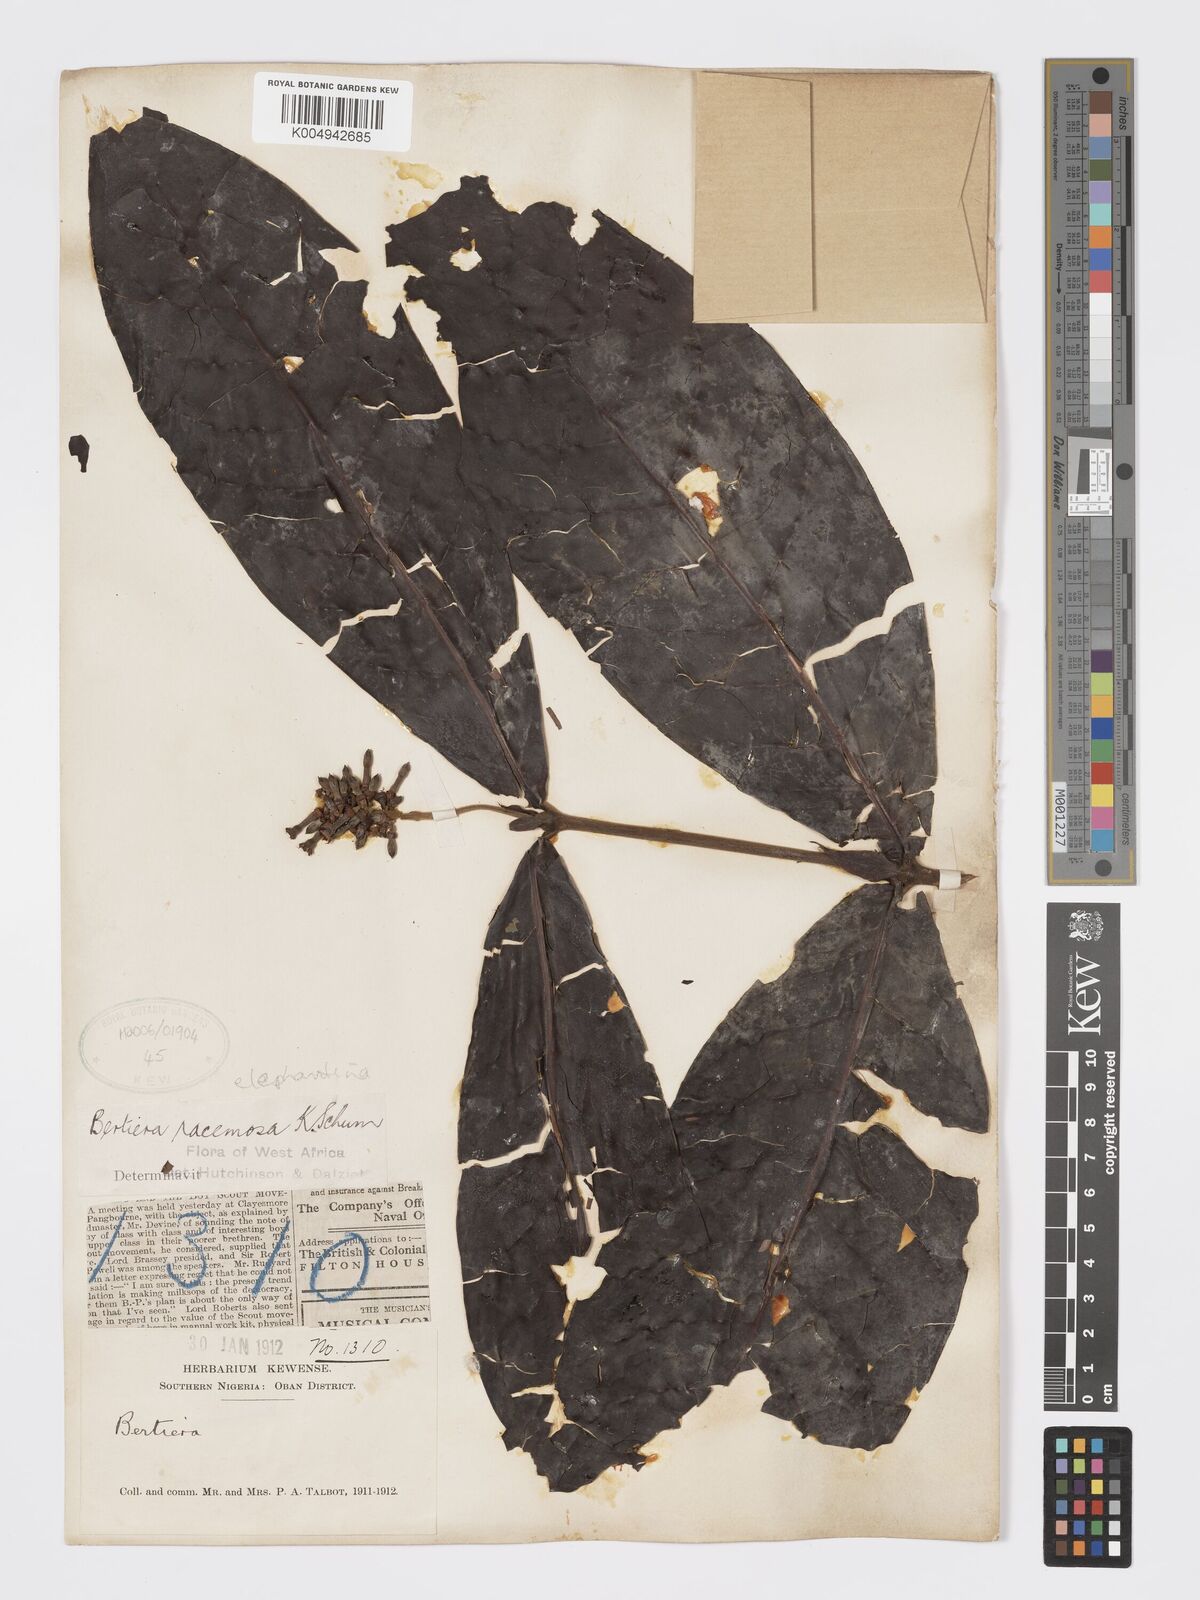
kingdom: Plantae
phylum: Tracheophyta
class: Magnoliopsida
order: Gentianales
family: Rubiaceae
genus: Bertiera
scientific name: Bertiera racemosa
